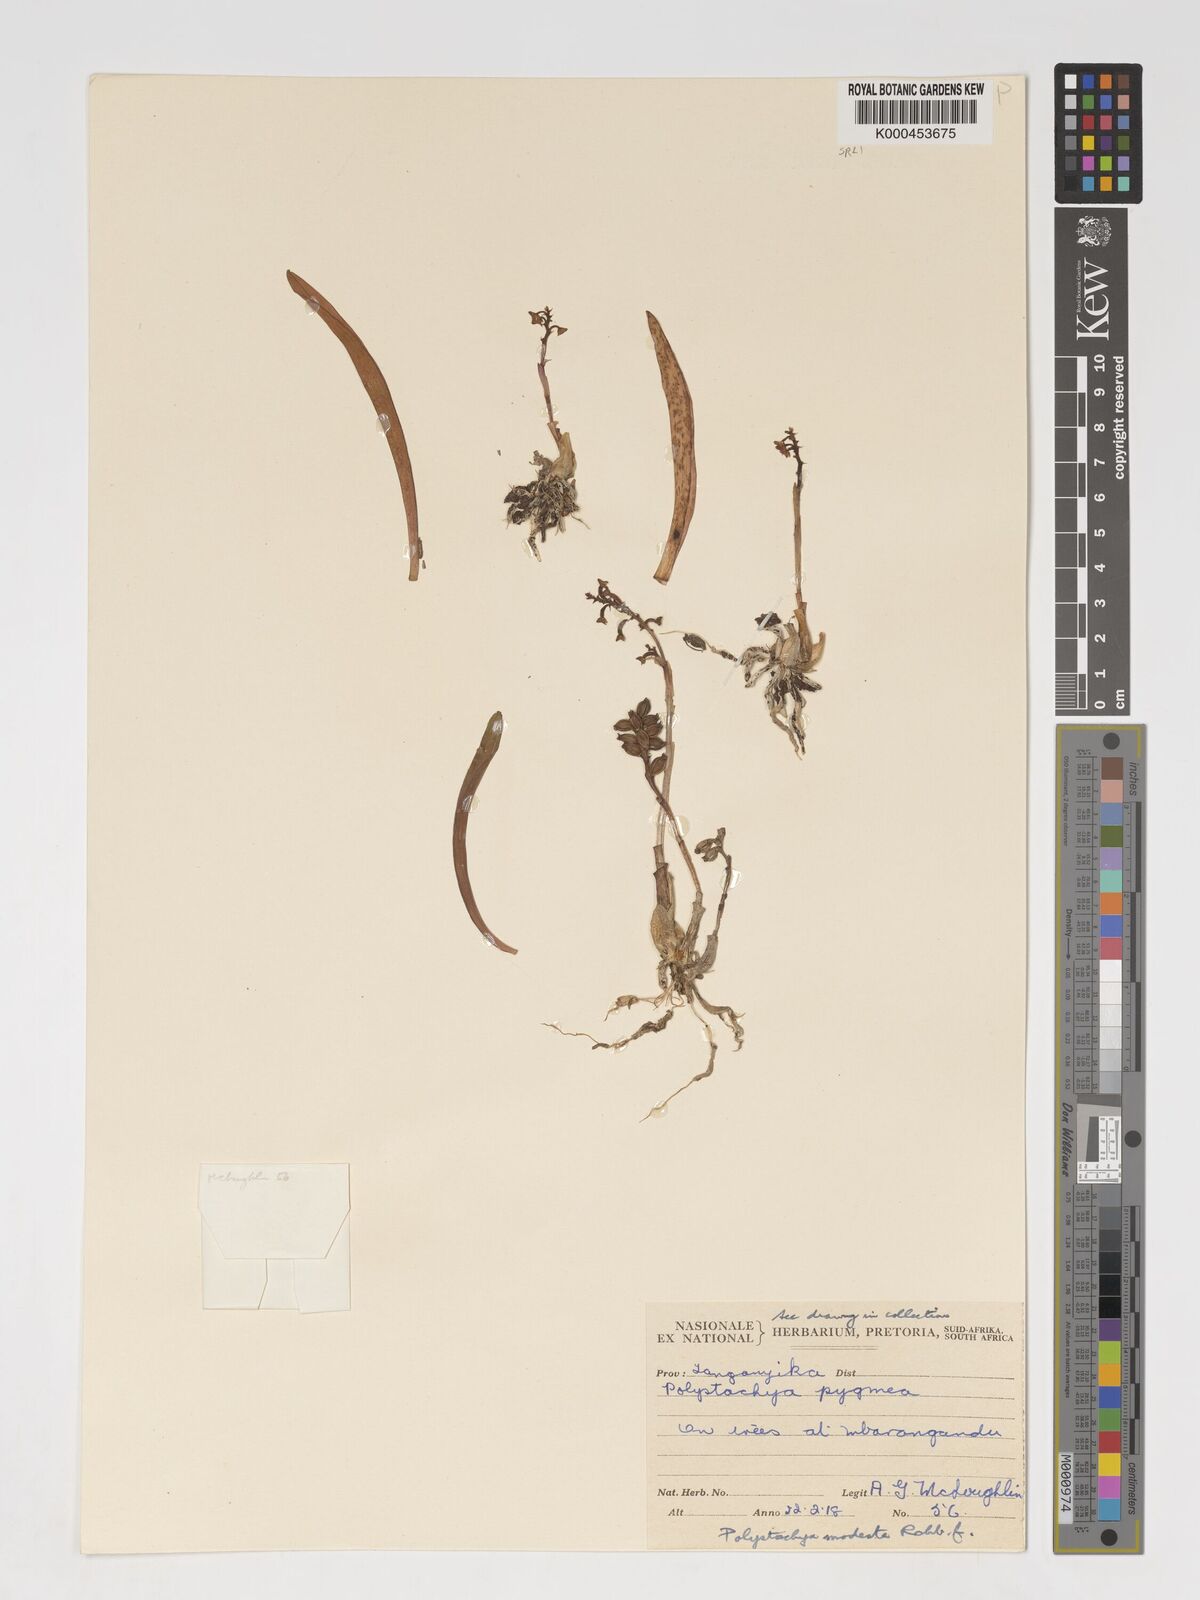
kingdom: Plantae
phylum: Tracheophyta
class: Liliopsida
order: Asparagales
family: Orchidaceae
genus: Polystachya
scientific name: Polystachya modesta
